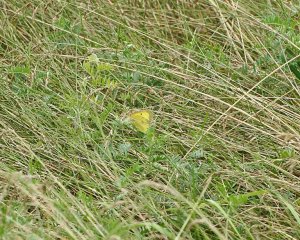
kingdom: Animalia
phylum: Arthropoda
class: Insecta
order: Lepidoptera
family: Pieridae
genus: Colias
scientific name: Colias philodice
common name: Clouded Sulphur
